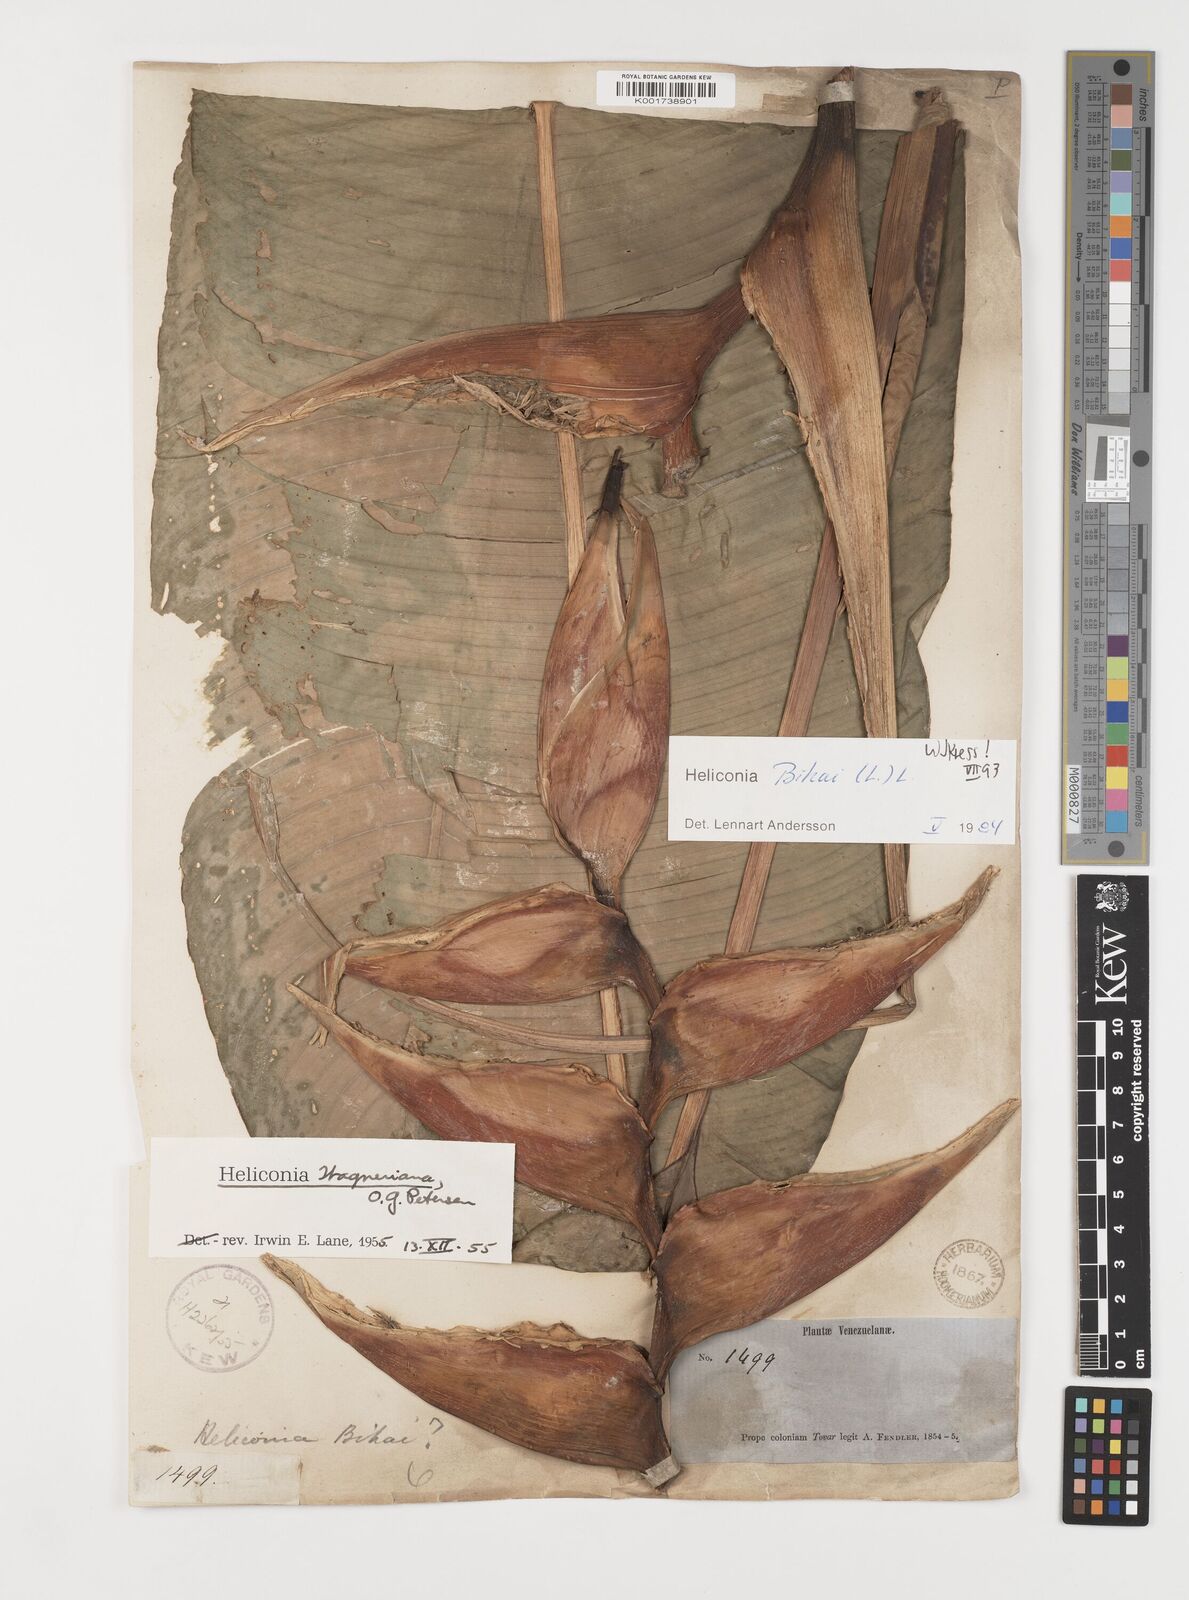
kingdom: Plantae
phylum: Tracheophyta
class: Liliopsida
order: Zingiberales
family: Heliconiaceae
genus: Heliconia
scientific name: Heliconia bihai
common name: Macaw flower
